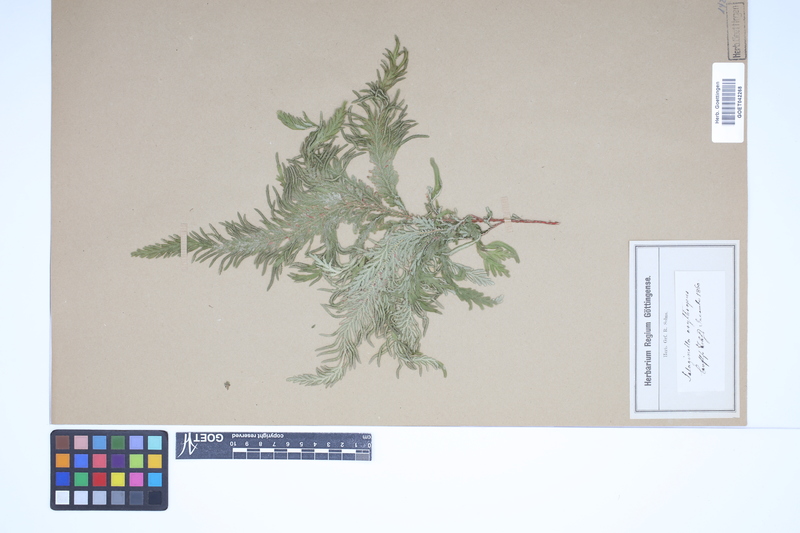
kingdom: Plantae
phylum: Tracheophyta
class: Lycopodiopsida
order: Selaginellales
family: Selaginellaceae
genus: Selaginella
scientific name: Selaginella erythropus
